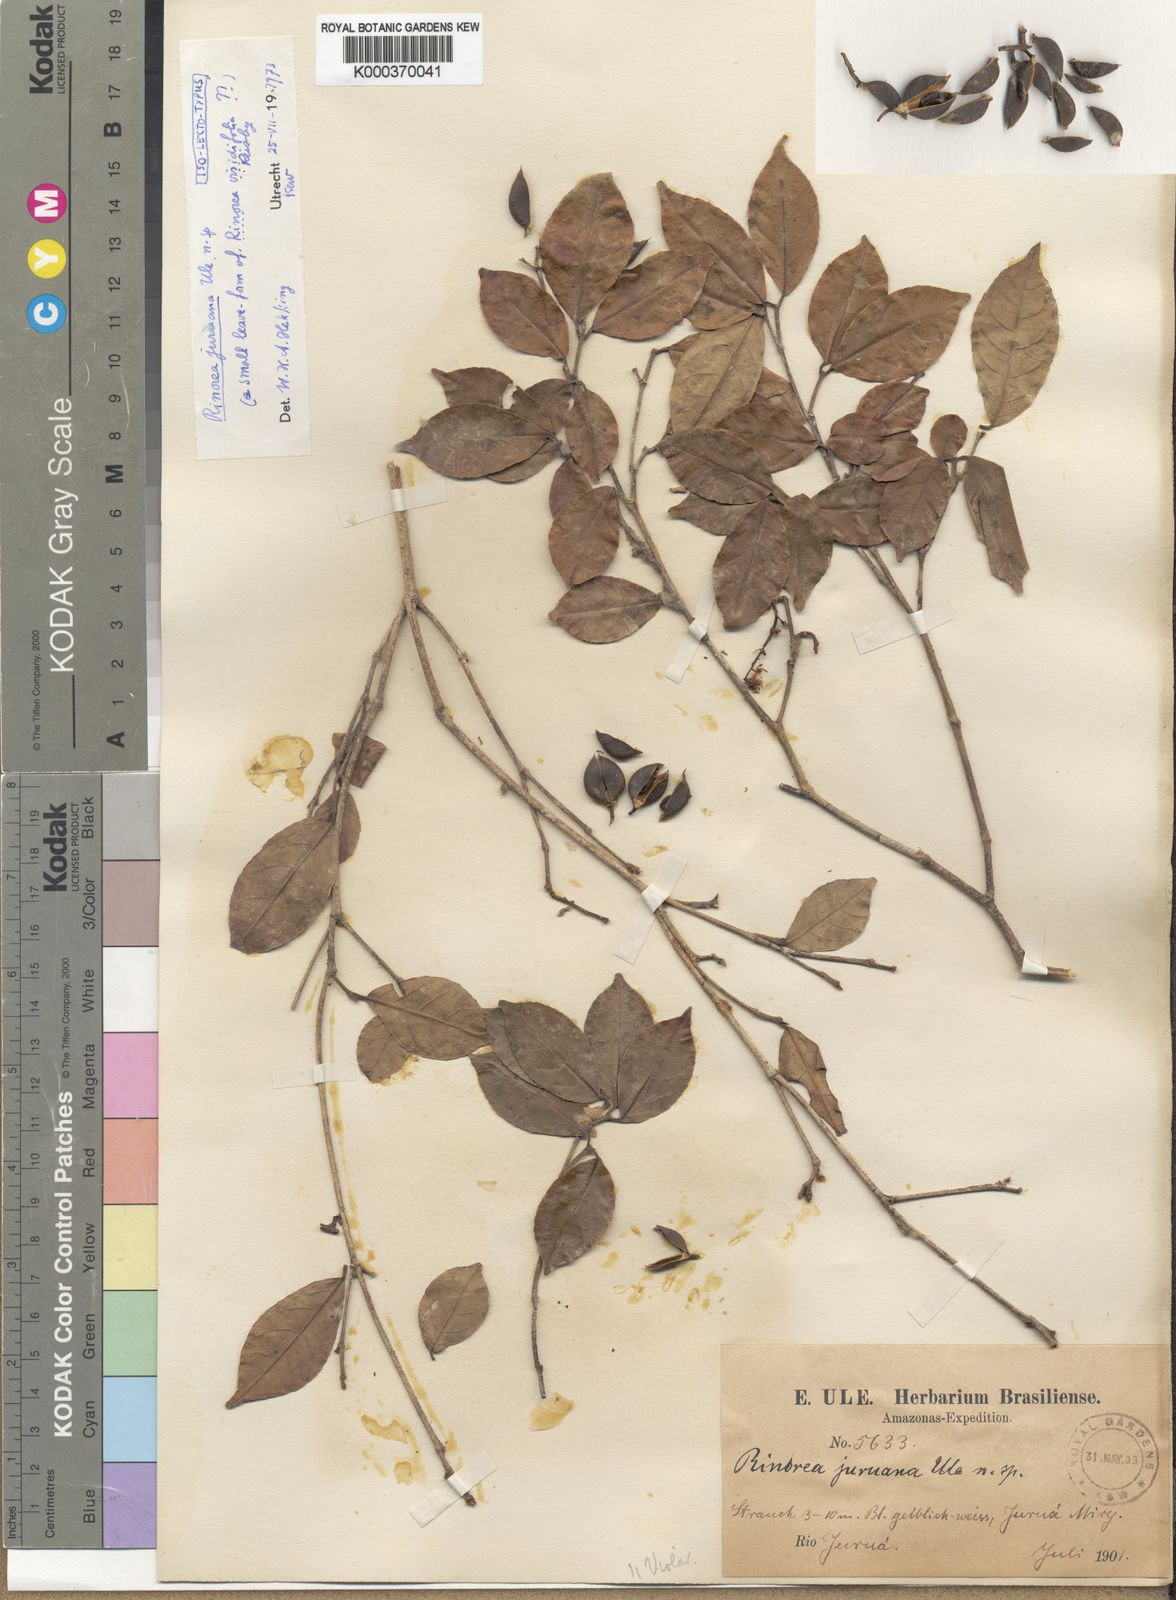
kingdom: Plantae
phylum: Tracheophyta
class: Magnoliopsida
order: Malpighiales
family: Violaceae
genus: Rinorea
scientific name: Rinorea viridifolia
